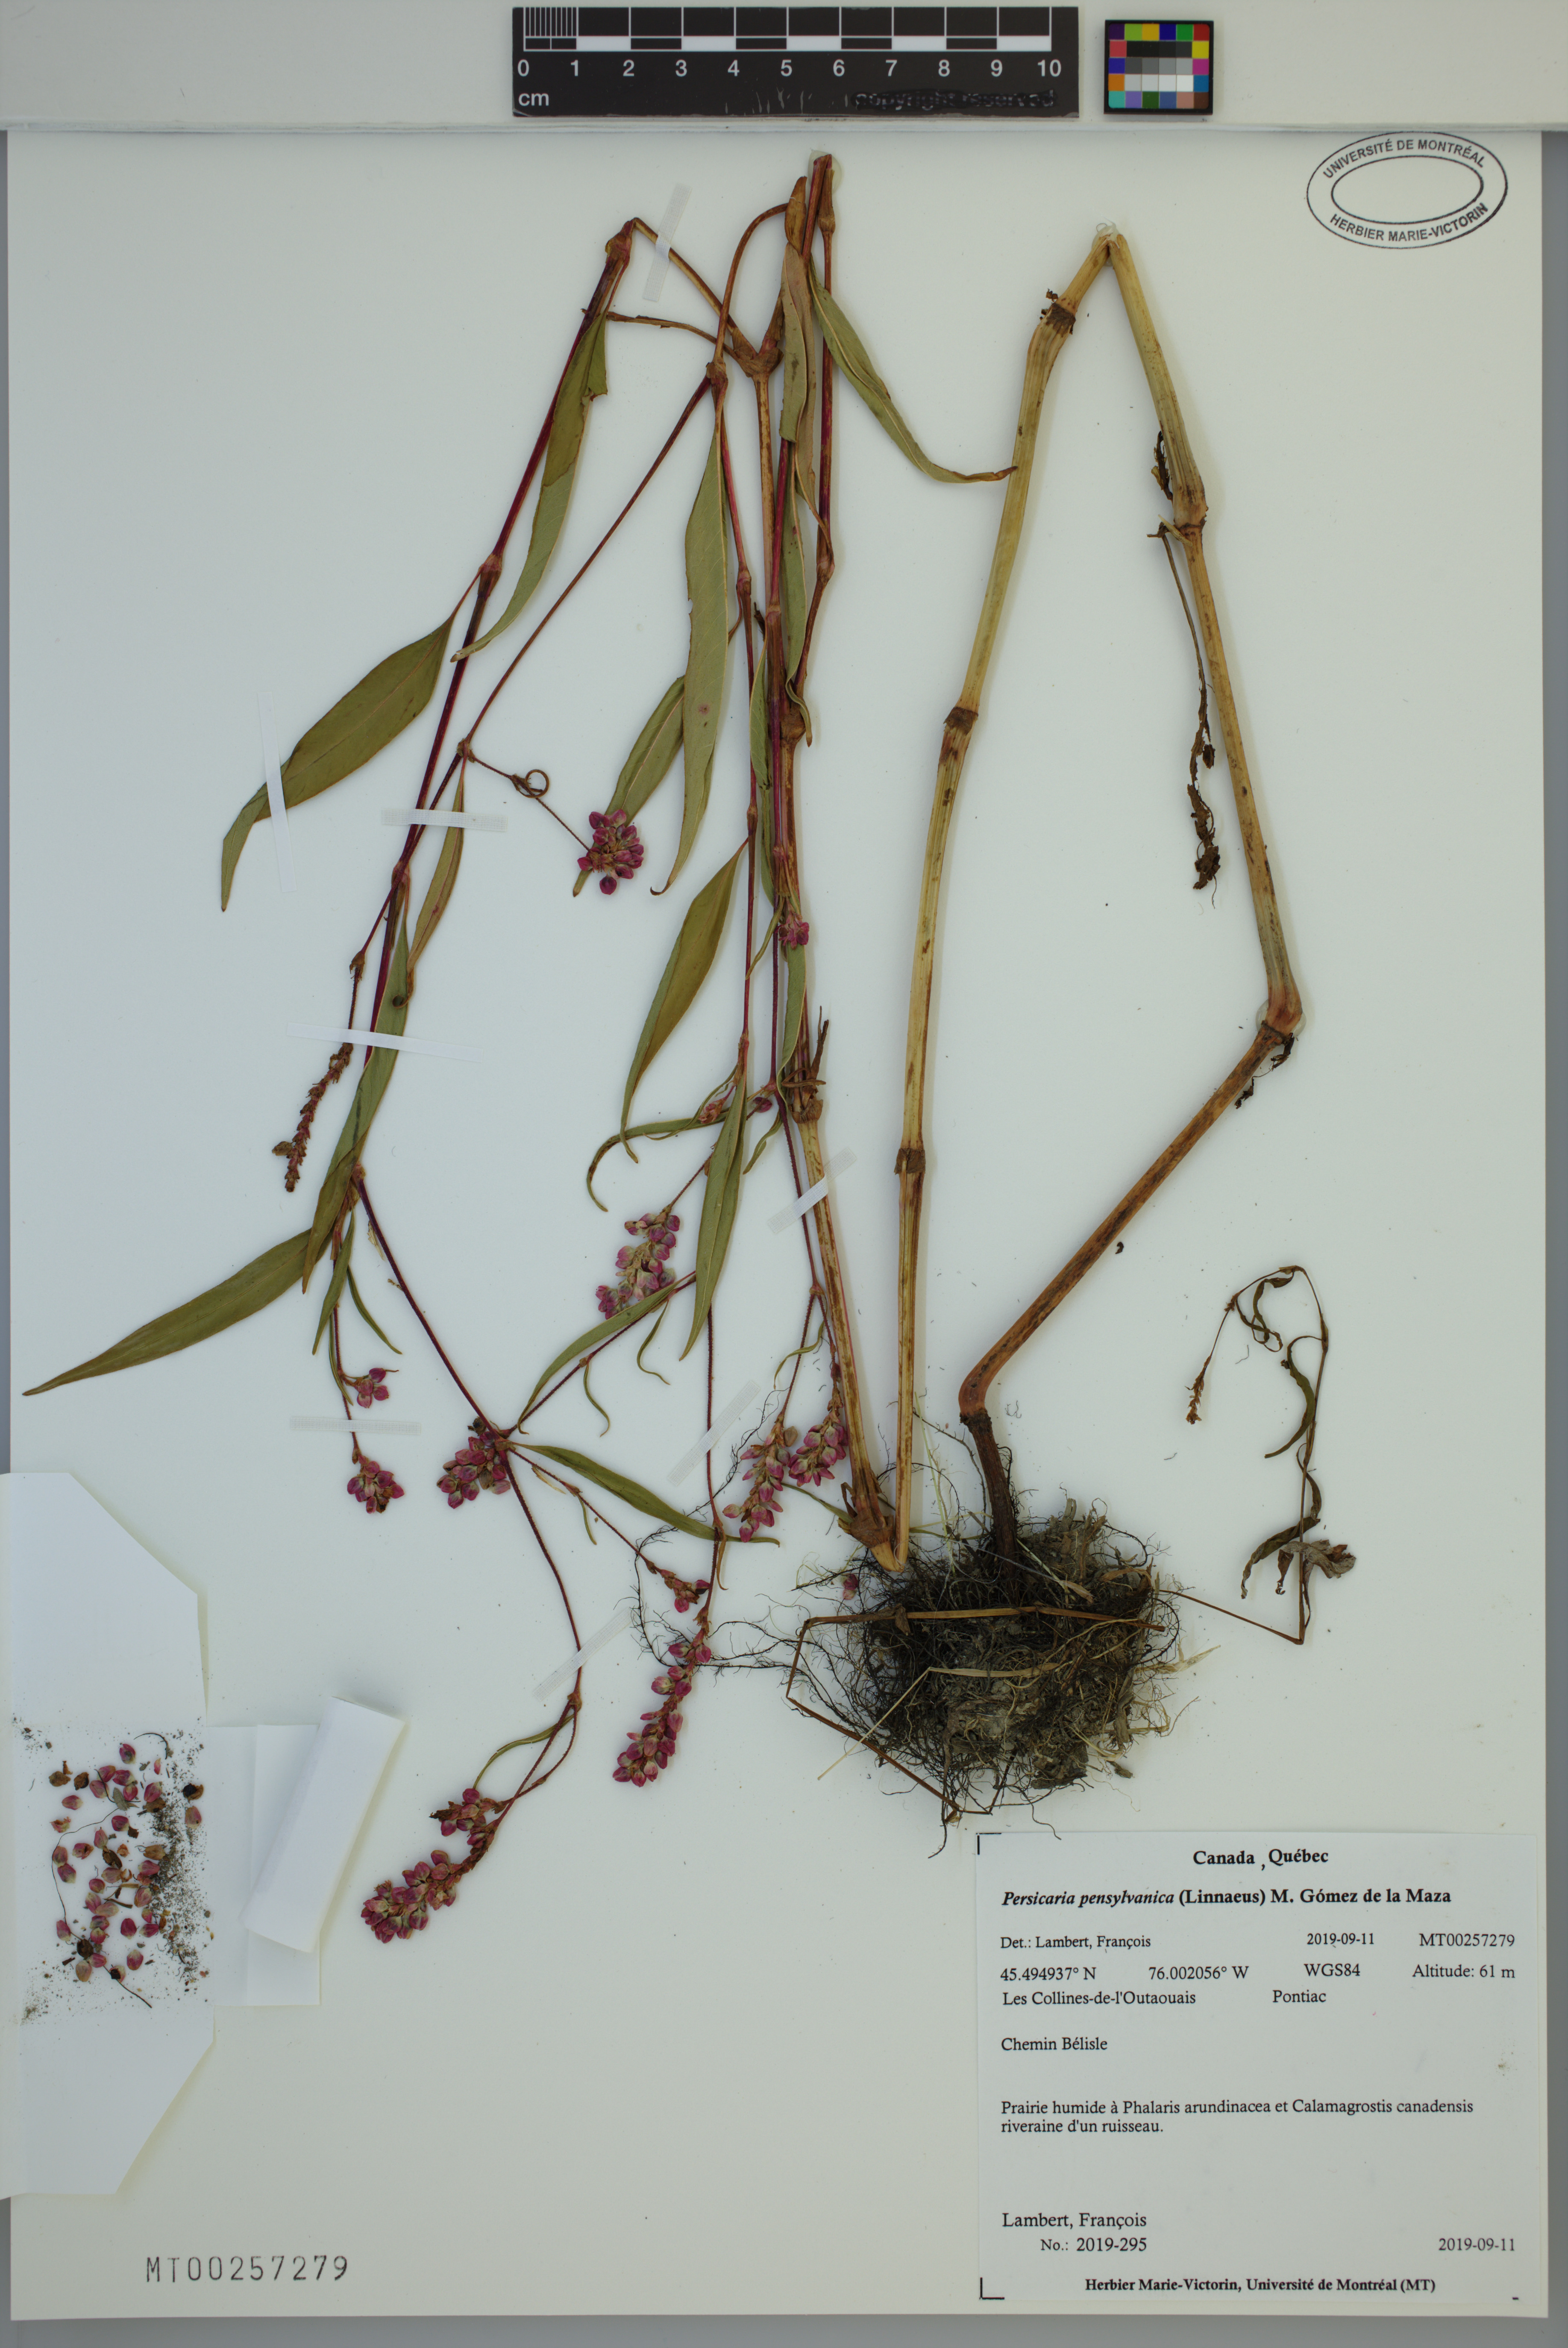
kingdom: Plantae
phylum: Tracheophyta
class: Magnoliopsida
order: Caryophyllales
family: Polygonaceae
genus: Persicaria
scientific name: Persicaria pensylvanica
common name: Pinkweed
